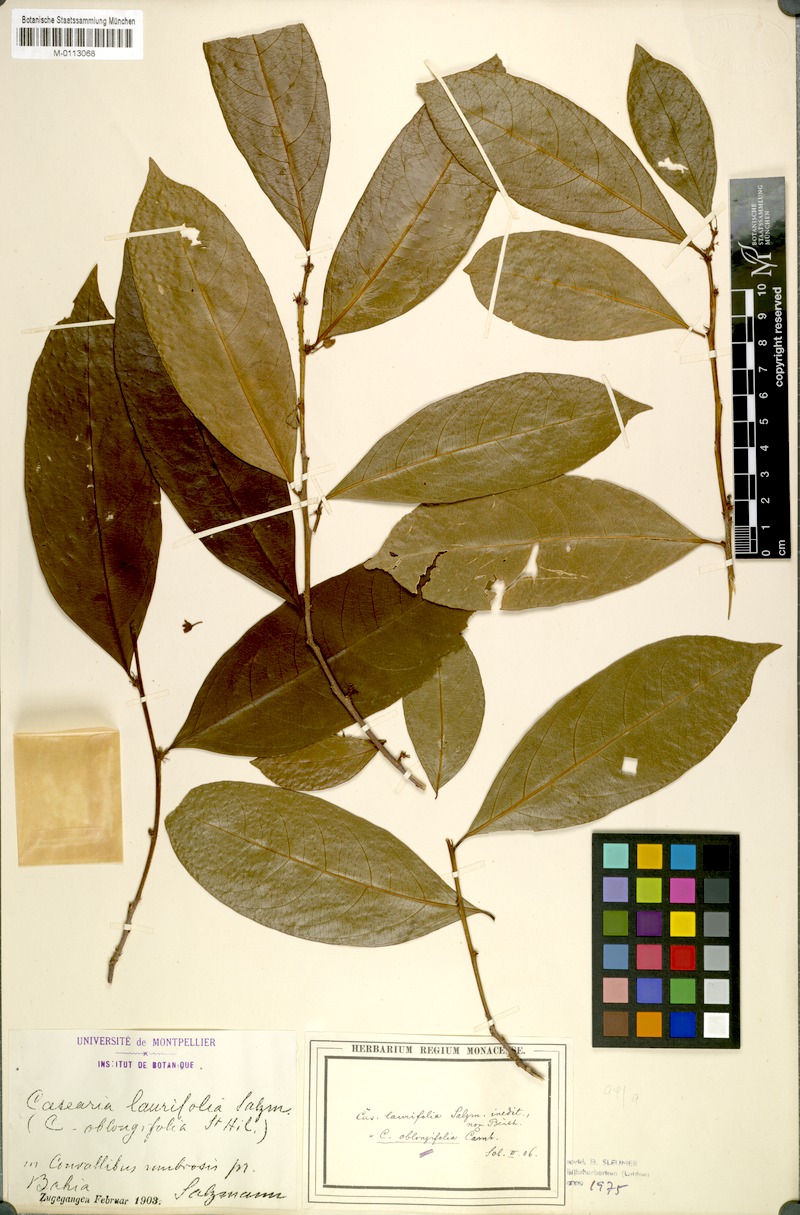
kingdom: Plantae
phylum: Tracheophyta
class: Magnoliopsida
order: Malpighiales
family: Salicaceae
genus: Piparea
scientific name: Piparea dentata
